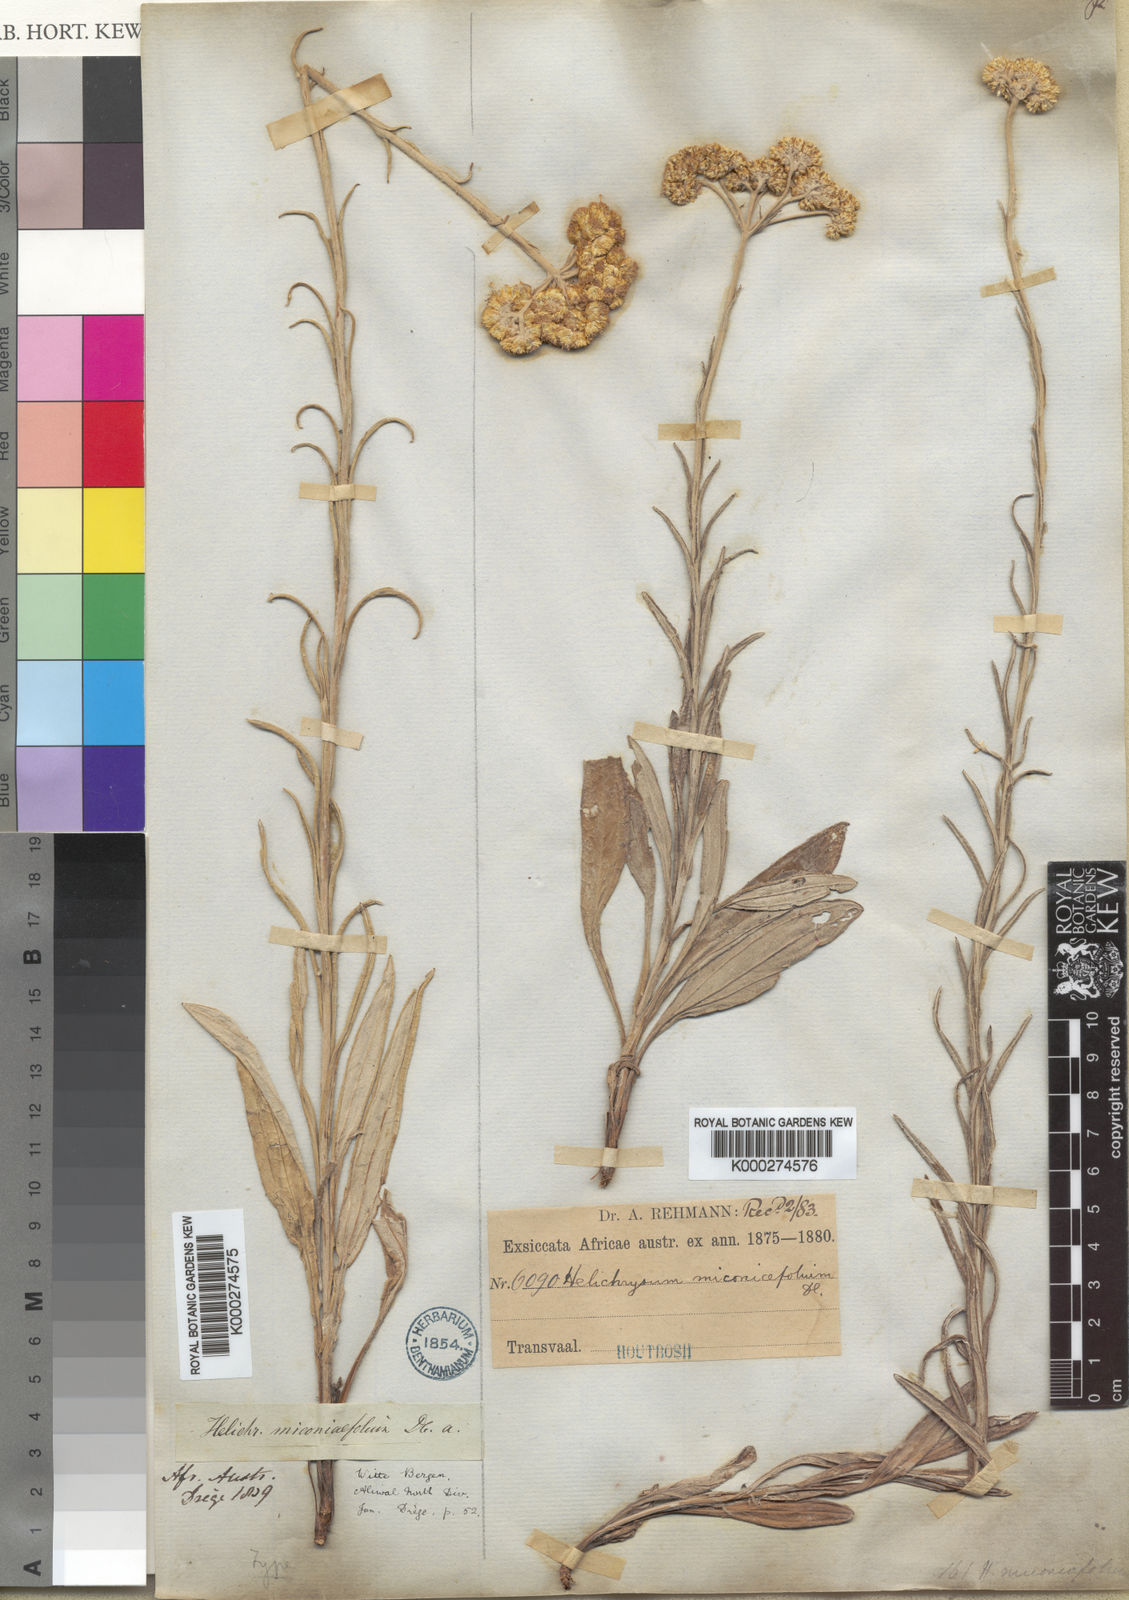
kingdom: Plantae
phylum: Tracheophyta
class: Magnoliopsida
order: Asterales
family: Asteraceae
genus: Helichrysum
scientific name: Helichrysum
